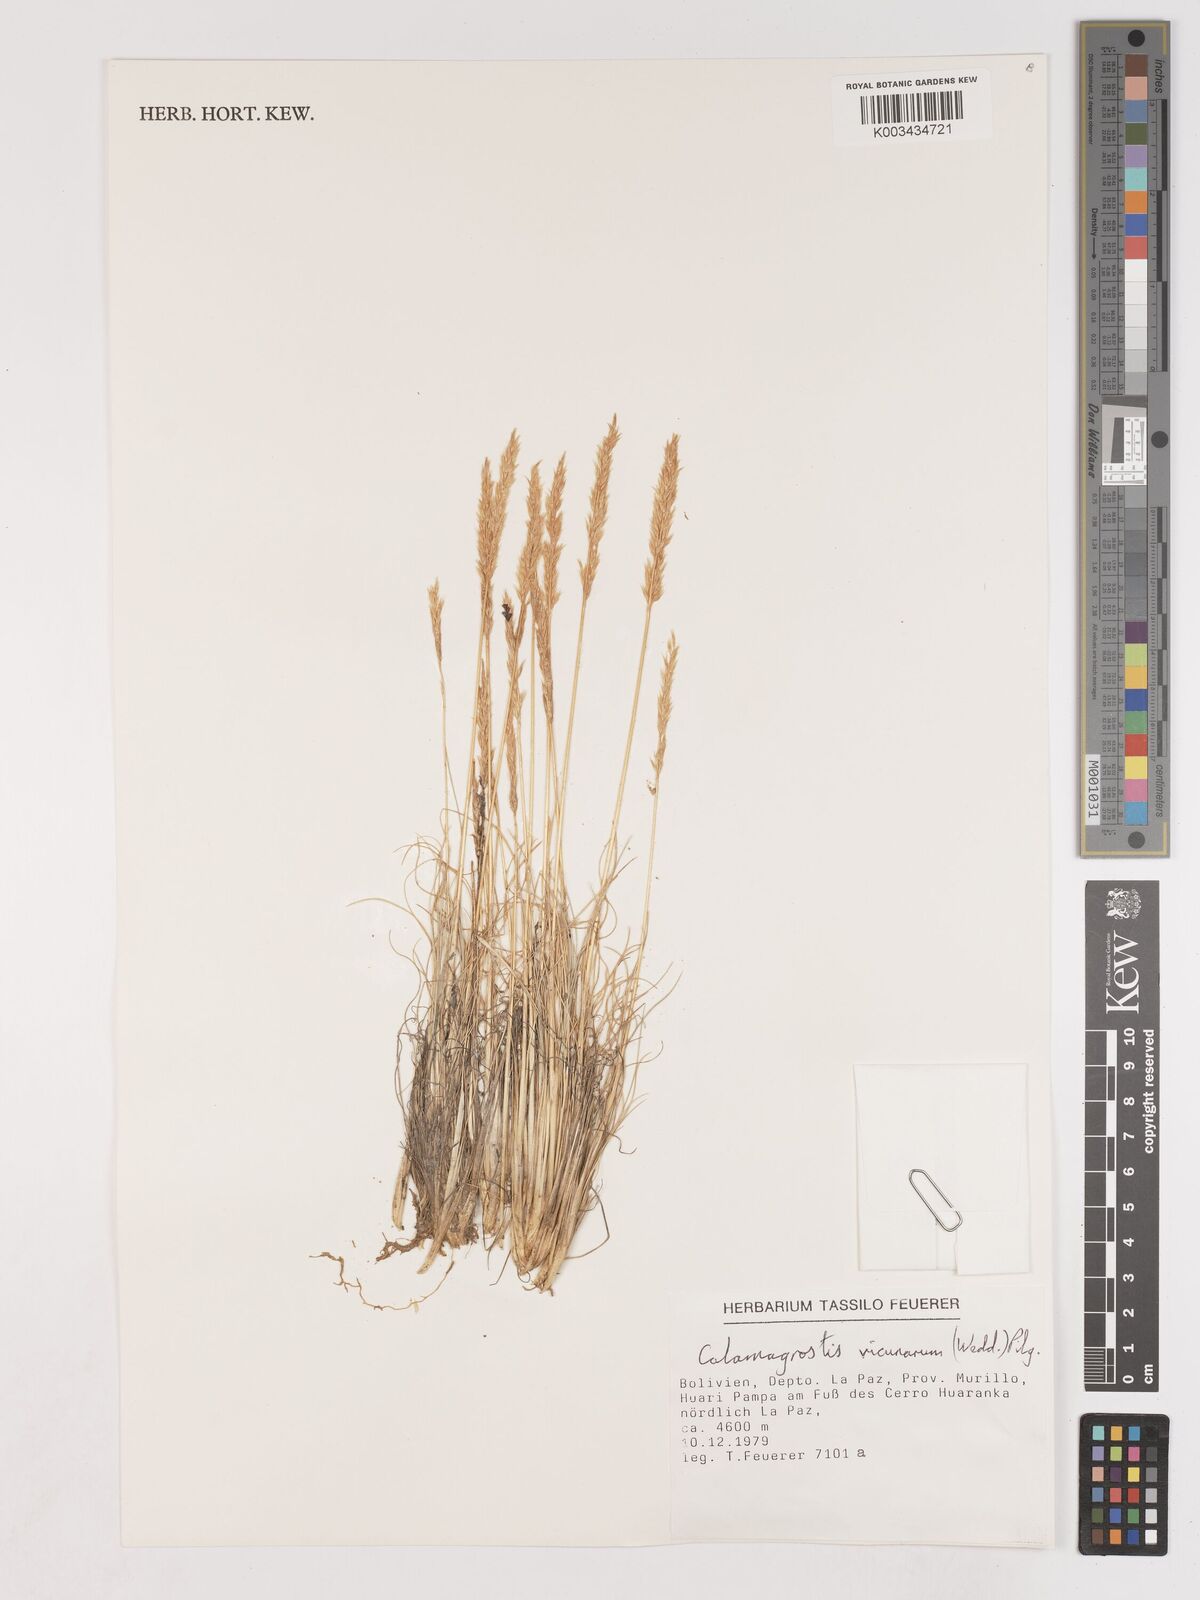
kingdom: Plantae
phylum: Tracheophyta
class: Liliopsida
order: Poales
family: Poaceae
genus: Cinnagrostis
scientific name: Cinnagrostis vicunarum
